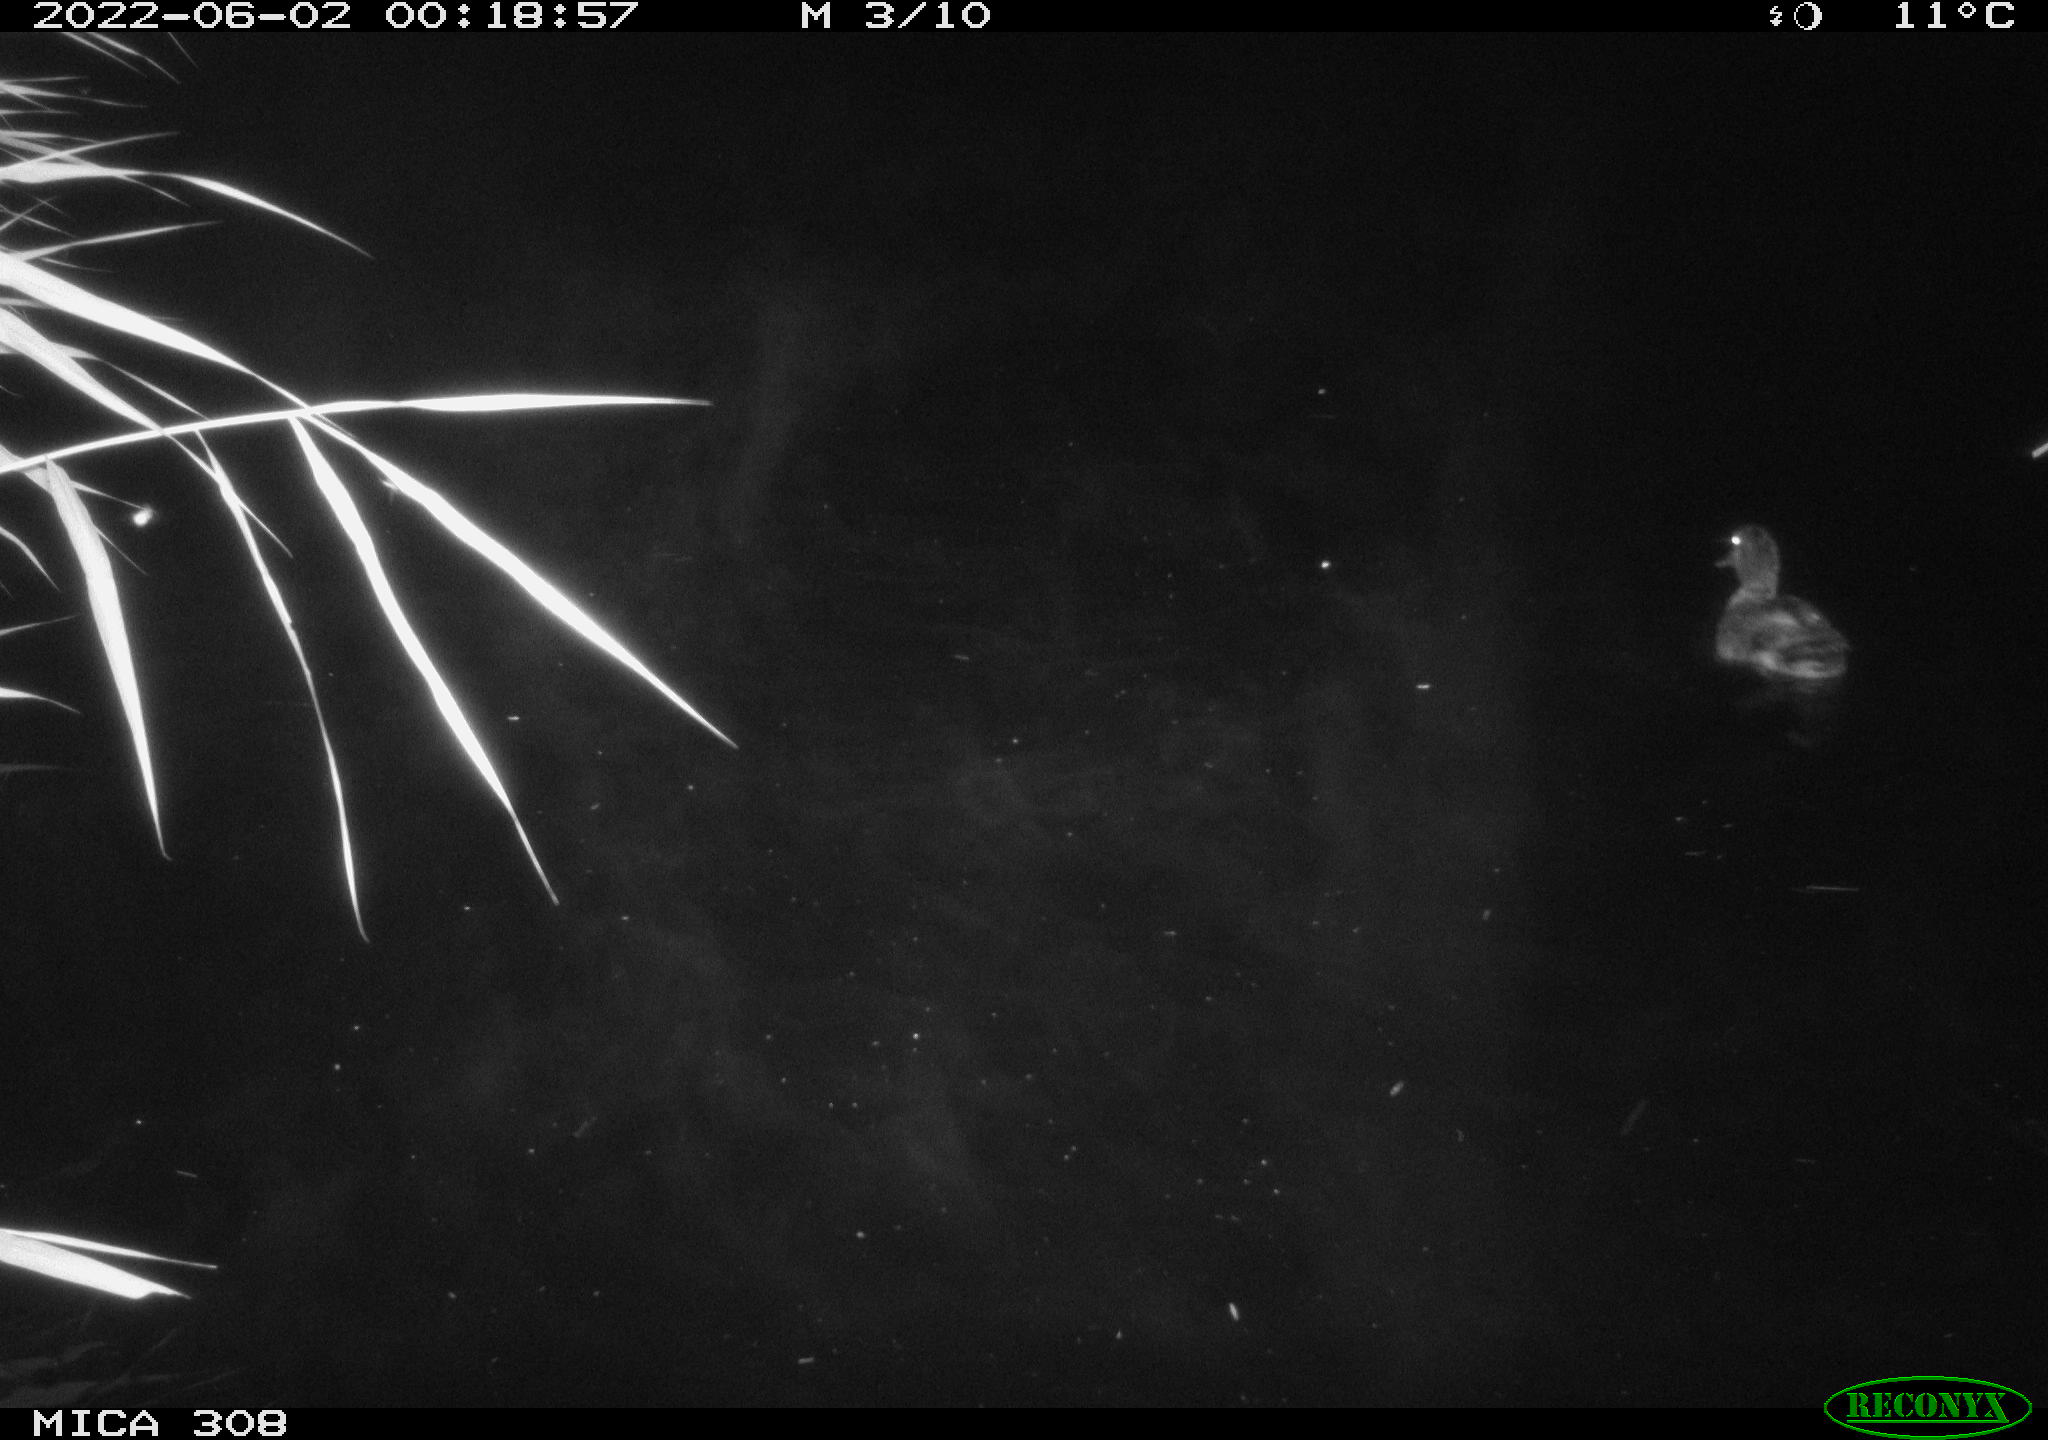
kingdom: Animalia
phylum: Chordata
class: Aves
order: Anseriformes
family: Anatidae
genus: Anas
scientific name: Anas platyrhynchos
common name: Mallard
